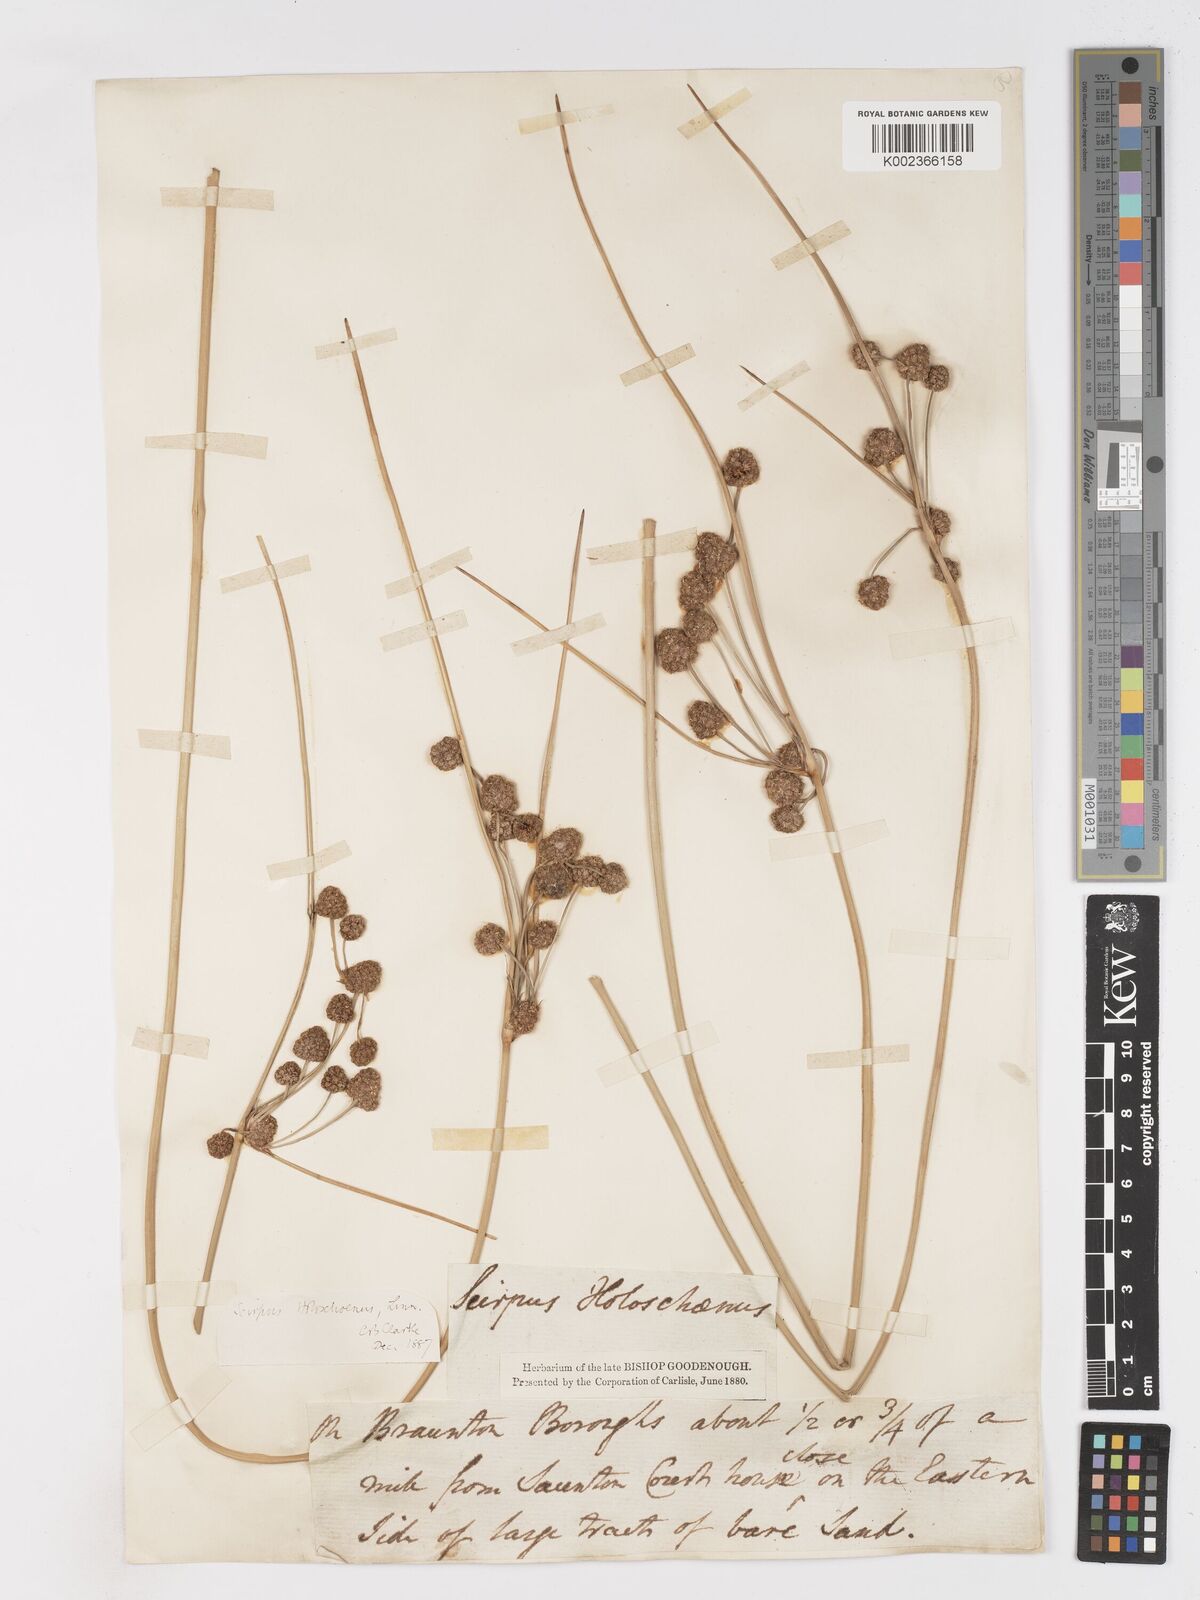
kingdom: Plantae
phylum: Tracheophyta
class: Liliopsida
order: Poales
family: Cyperaceae
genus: Scirpoides
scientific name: Scirpoides holoschoenus
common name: Round-headed club-rush
